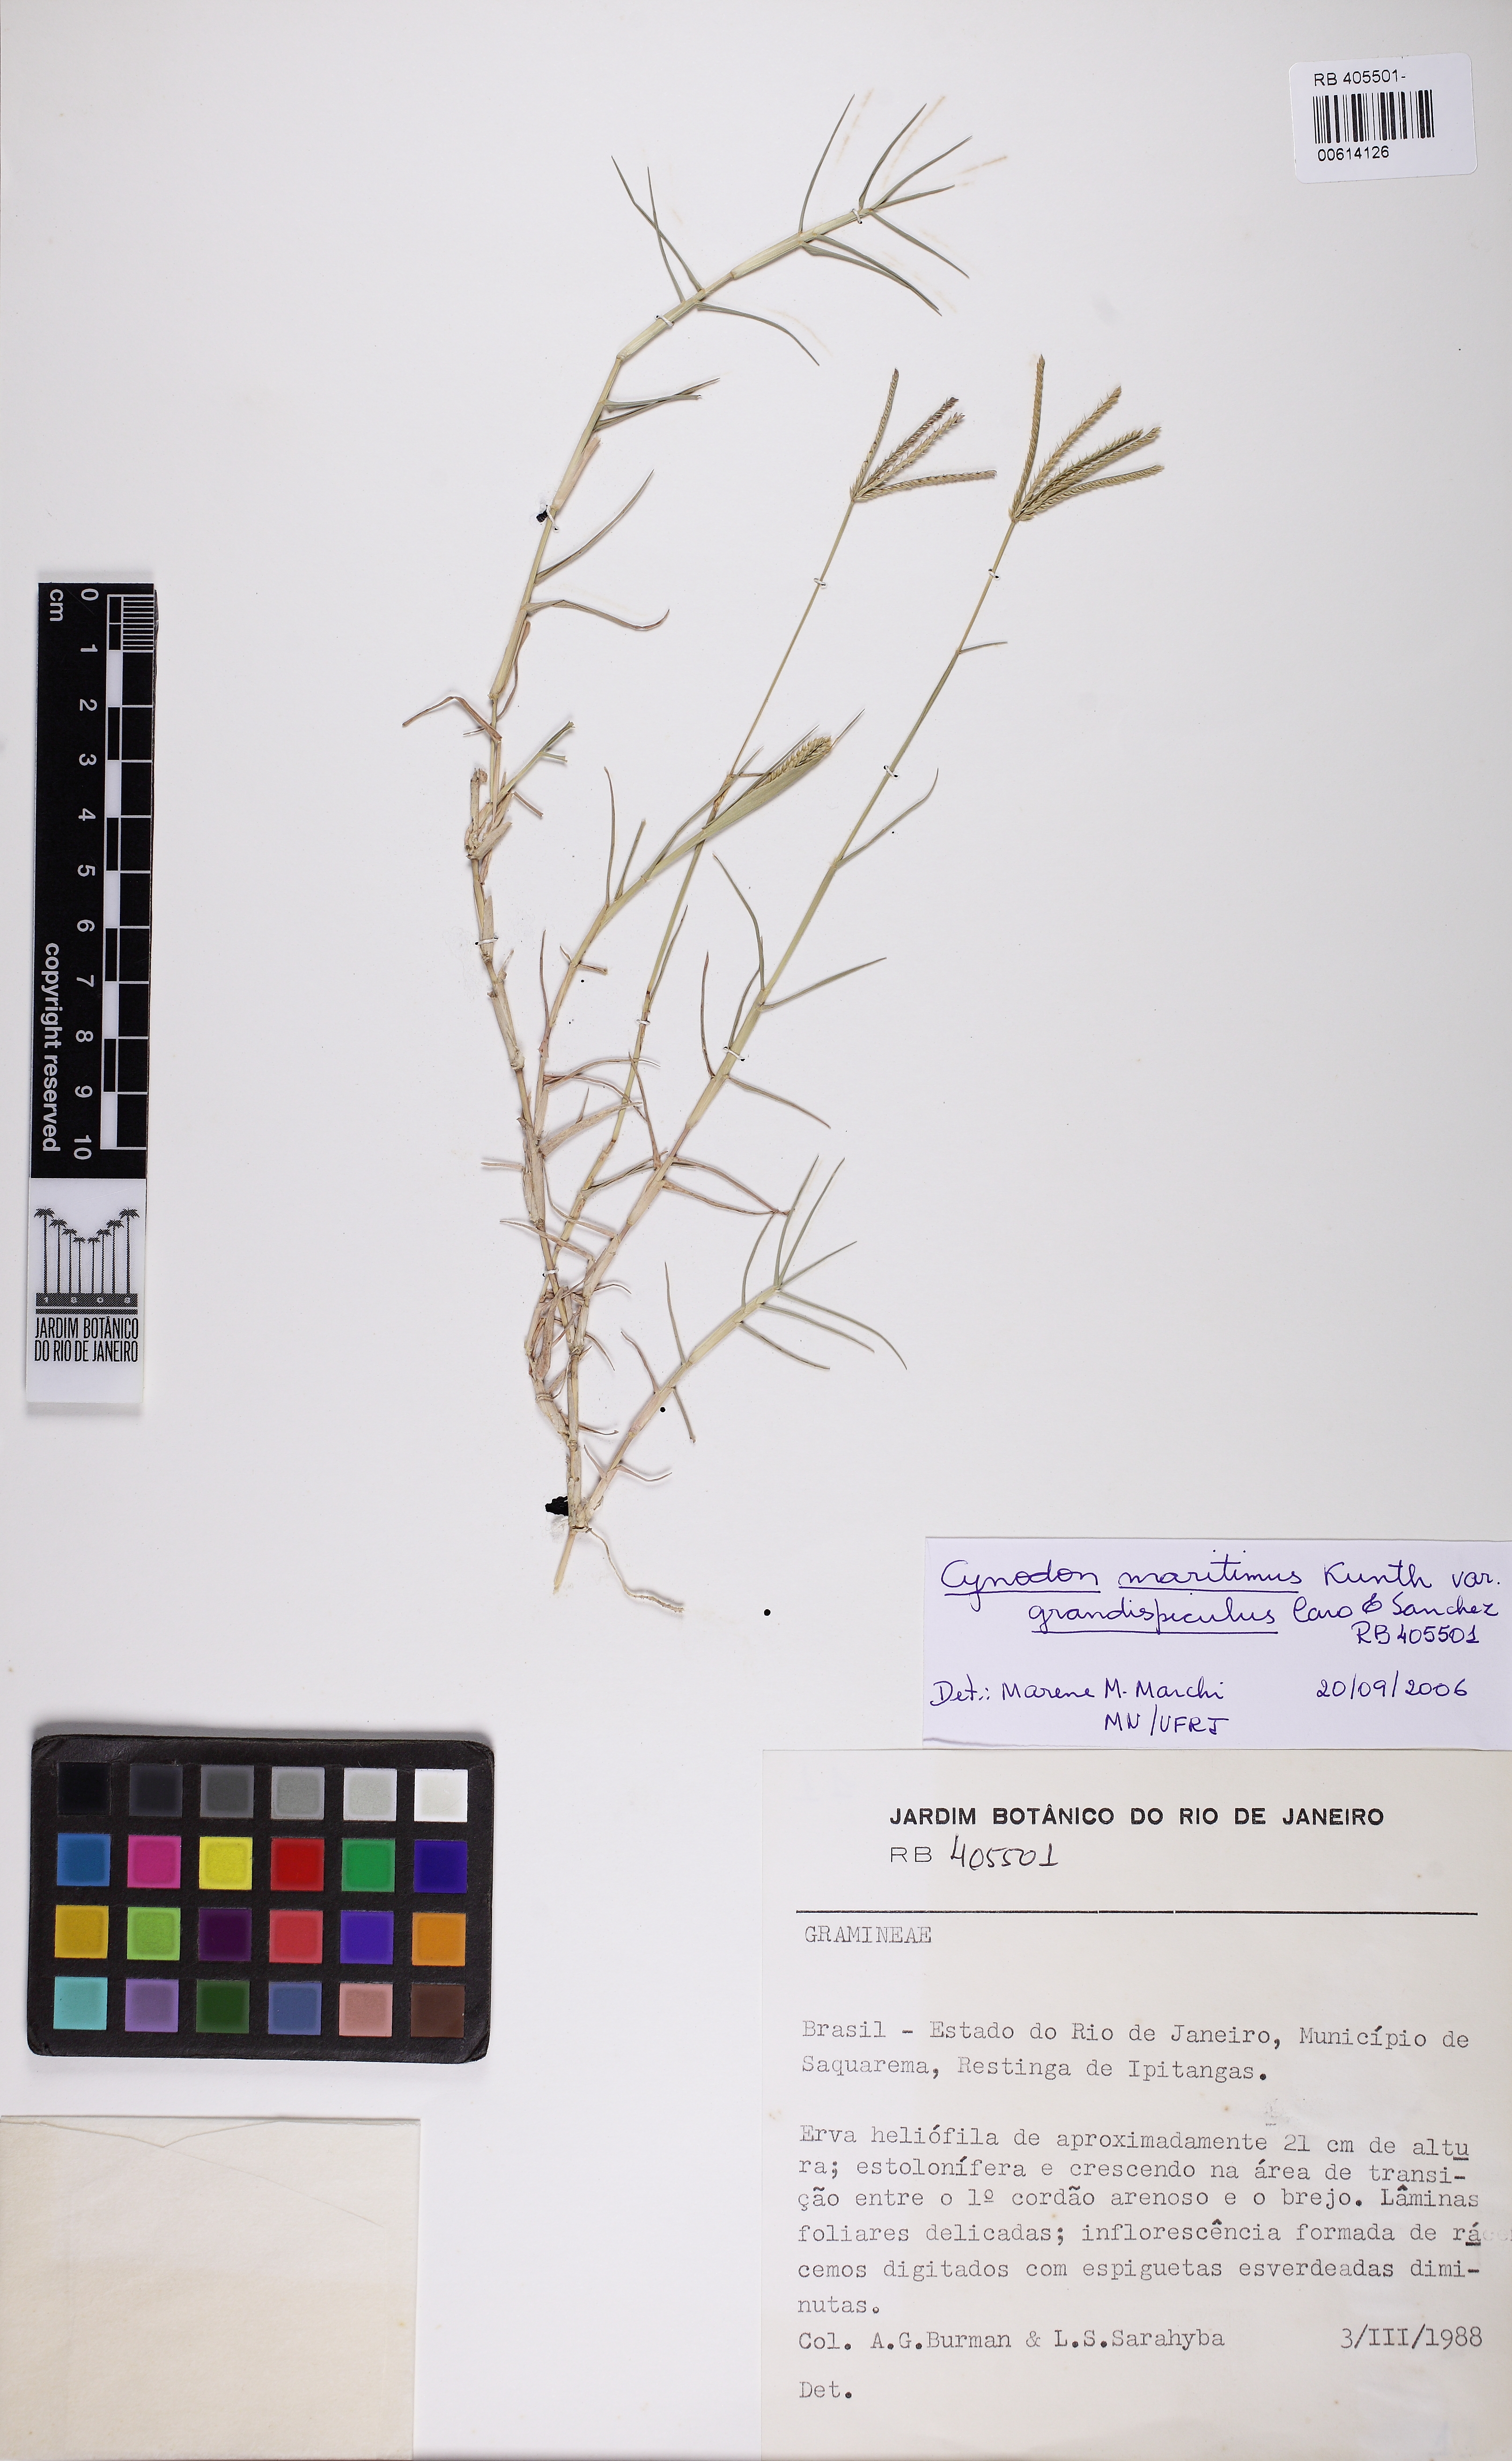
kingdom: Plantae
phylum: Tracheophyta
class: Liliopsida
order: Poales
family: Poaceae
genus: Cynodon
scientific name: Cynodon dactylon
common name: Bermuda grass
